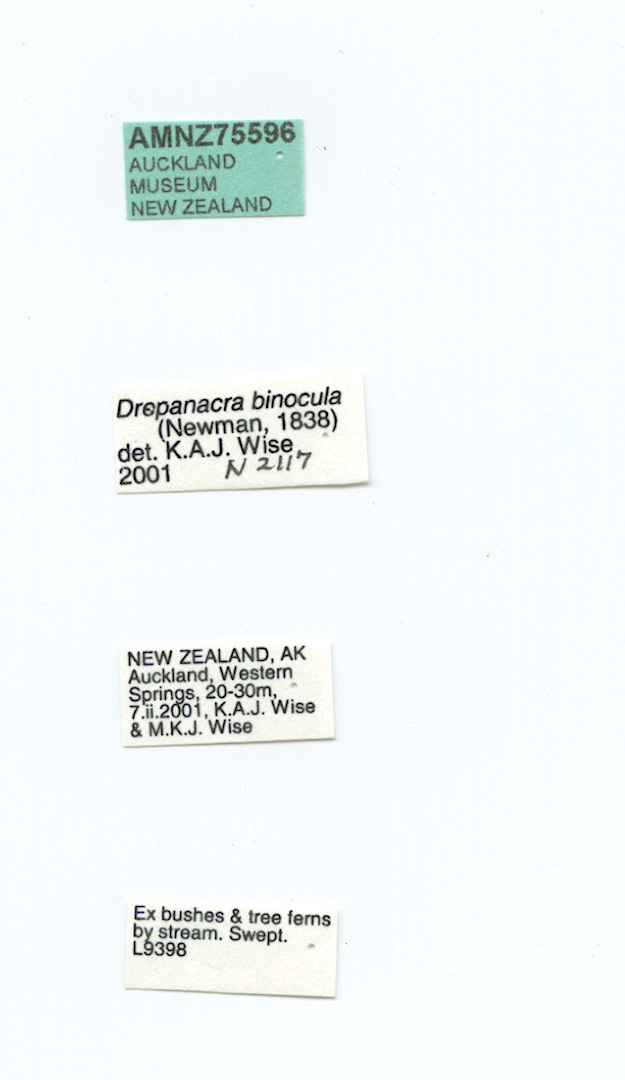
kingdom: Animalia
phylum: Arthropoda
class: Insecta
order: Neuroptera
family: Hemerobiidae
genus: Drepanacra
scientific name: Drepanacra binocula
